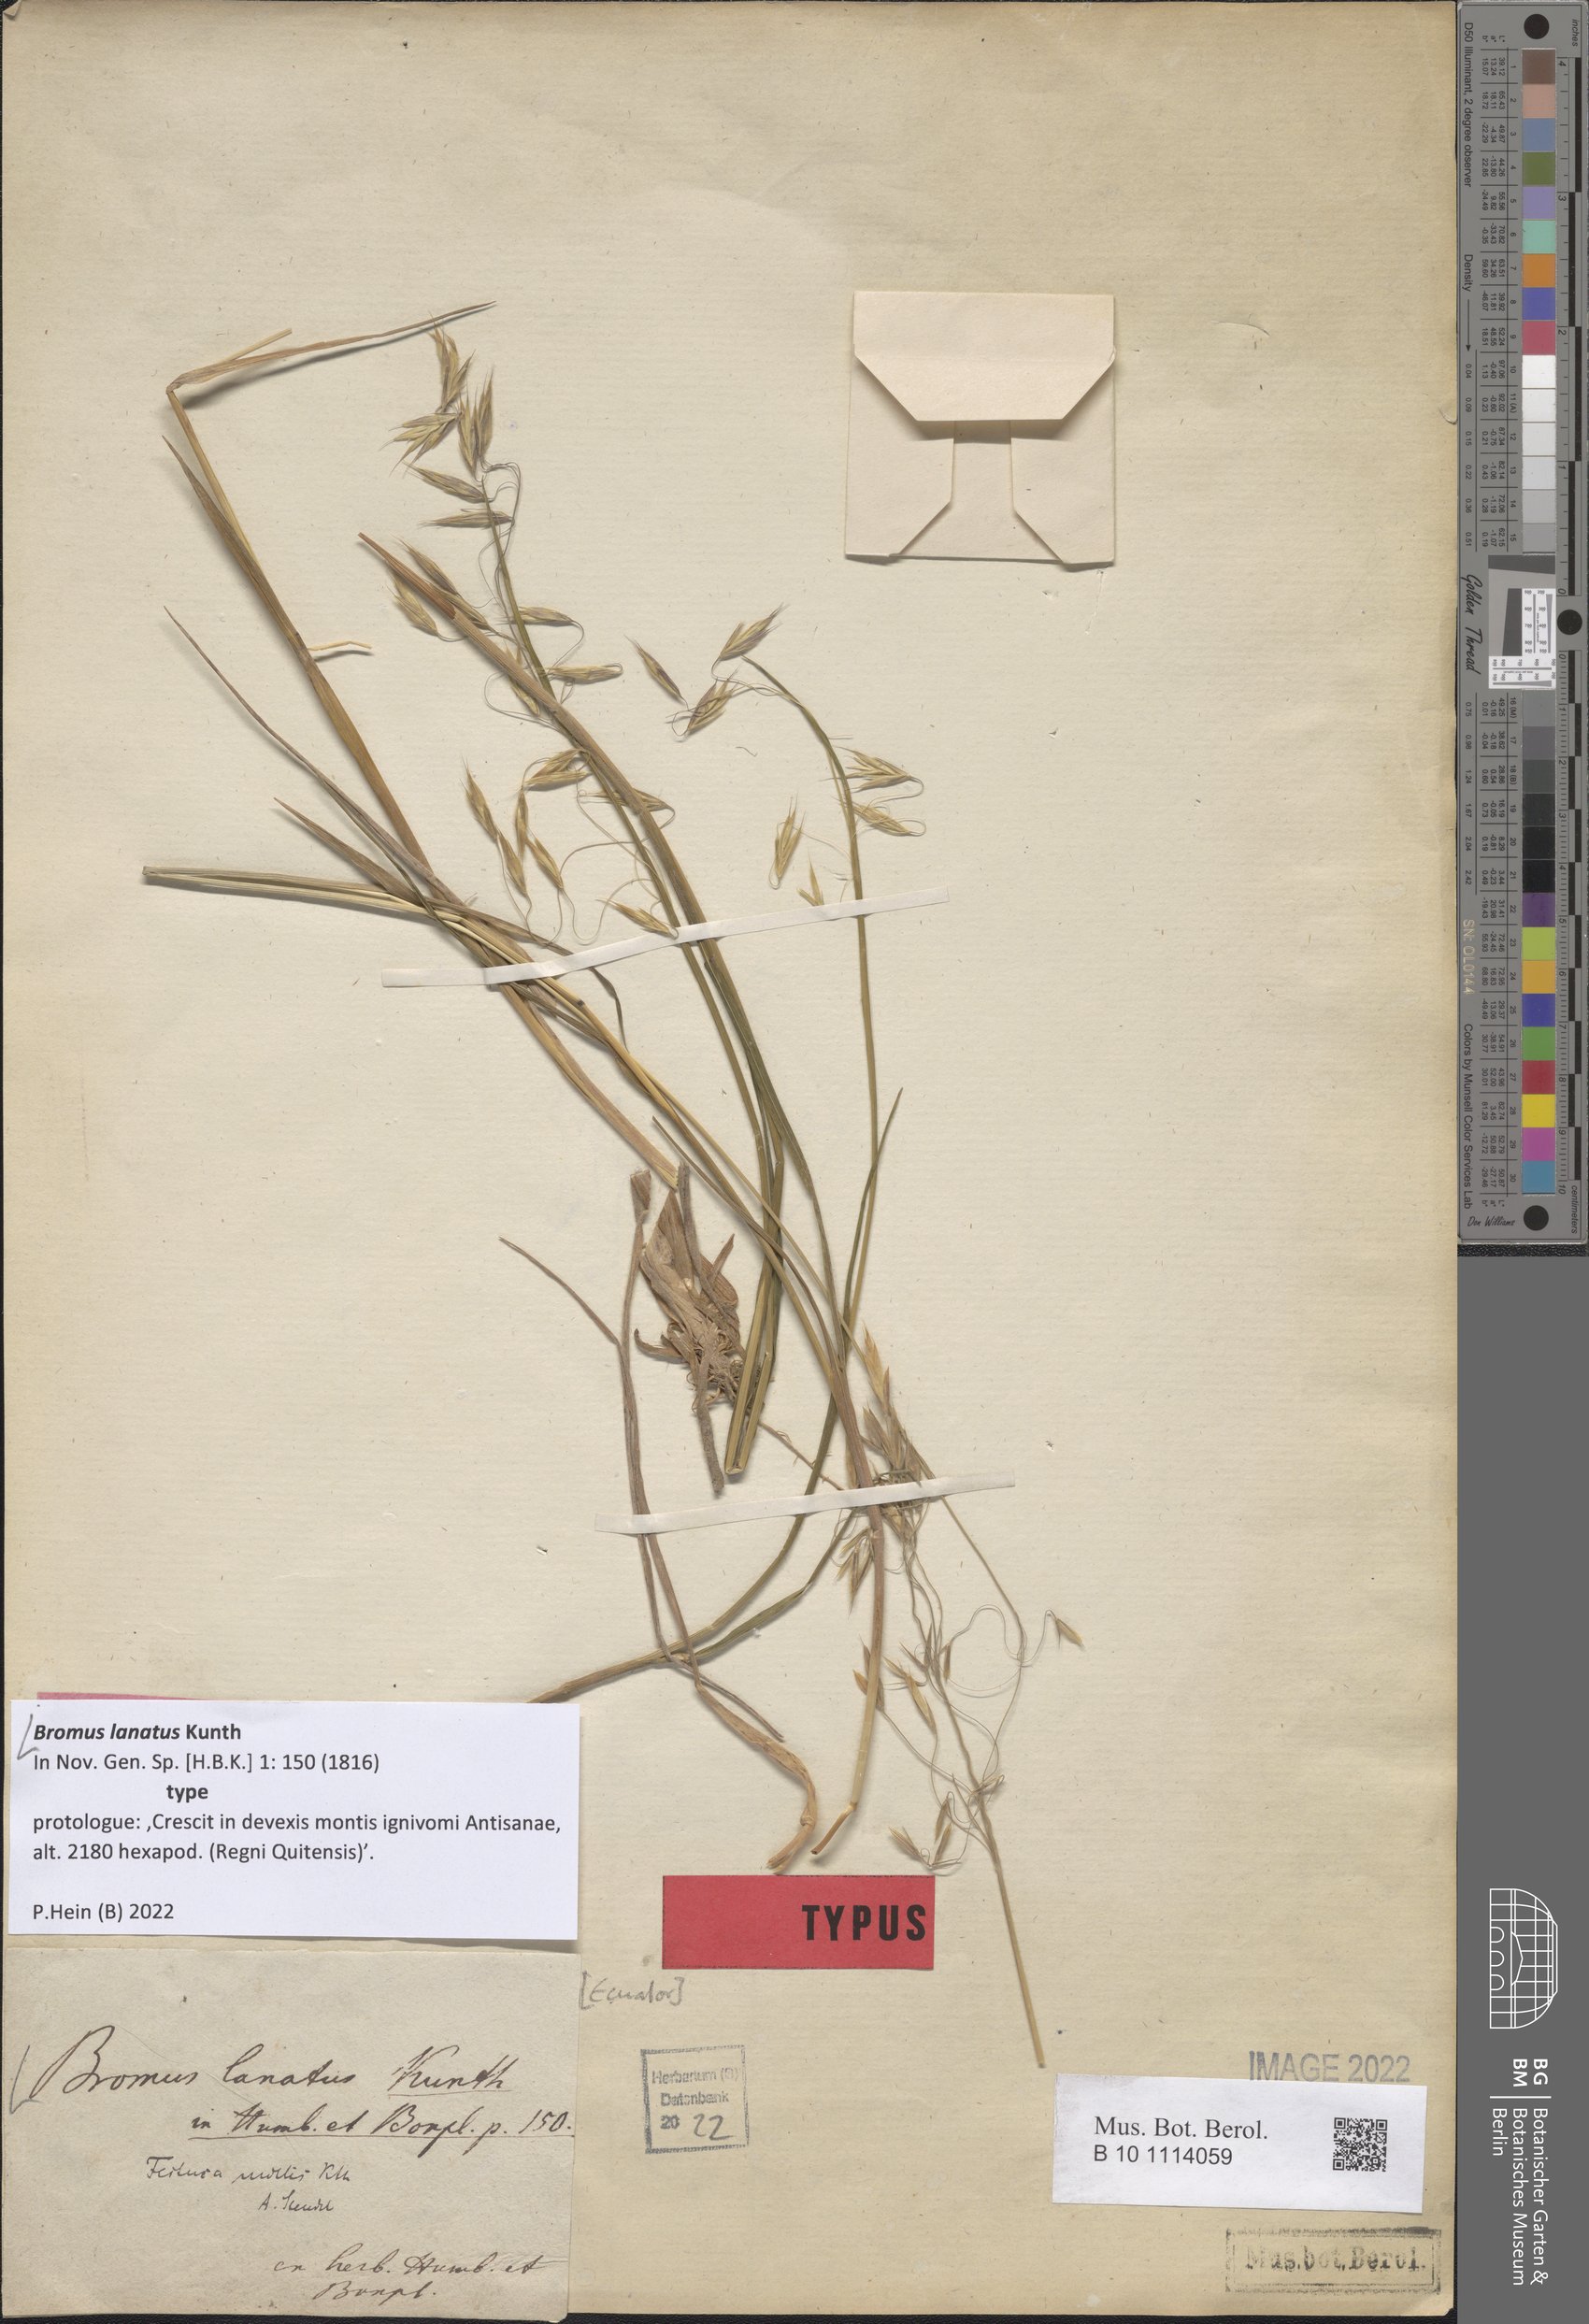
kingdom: Plantae
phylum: Tracheophyta
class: Liliopsida
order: Poales
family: Poaceae
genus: Bromus
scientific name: Bromus lanatus
